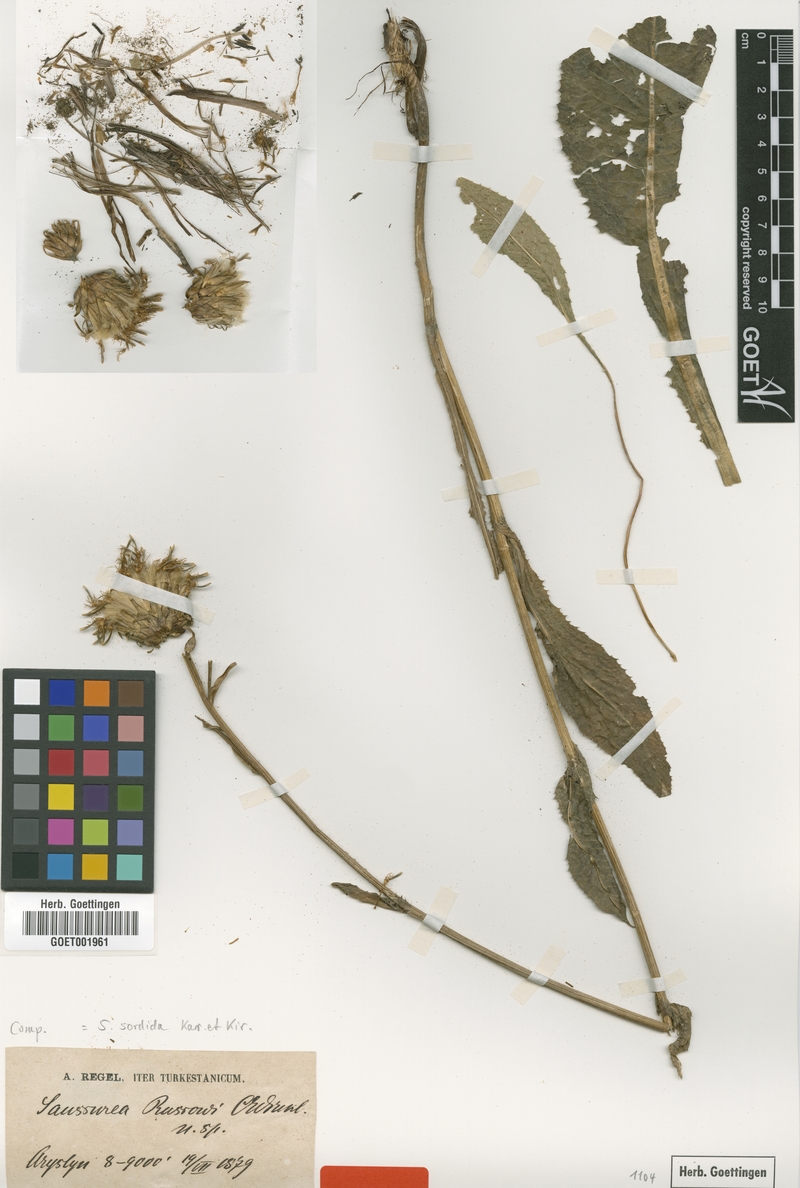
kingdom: Plantae
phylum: Tracheophyta
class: Magnoliopsida
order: Asterales
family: Asteraceae
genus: Saussurea
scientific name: Saussurea sordida
